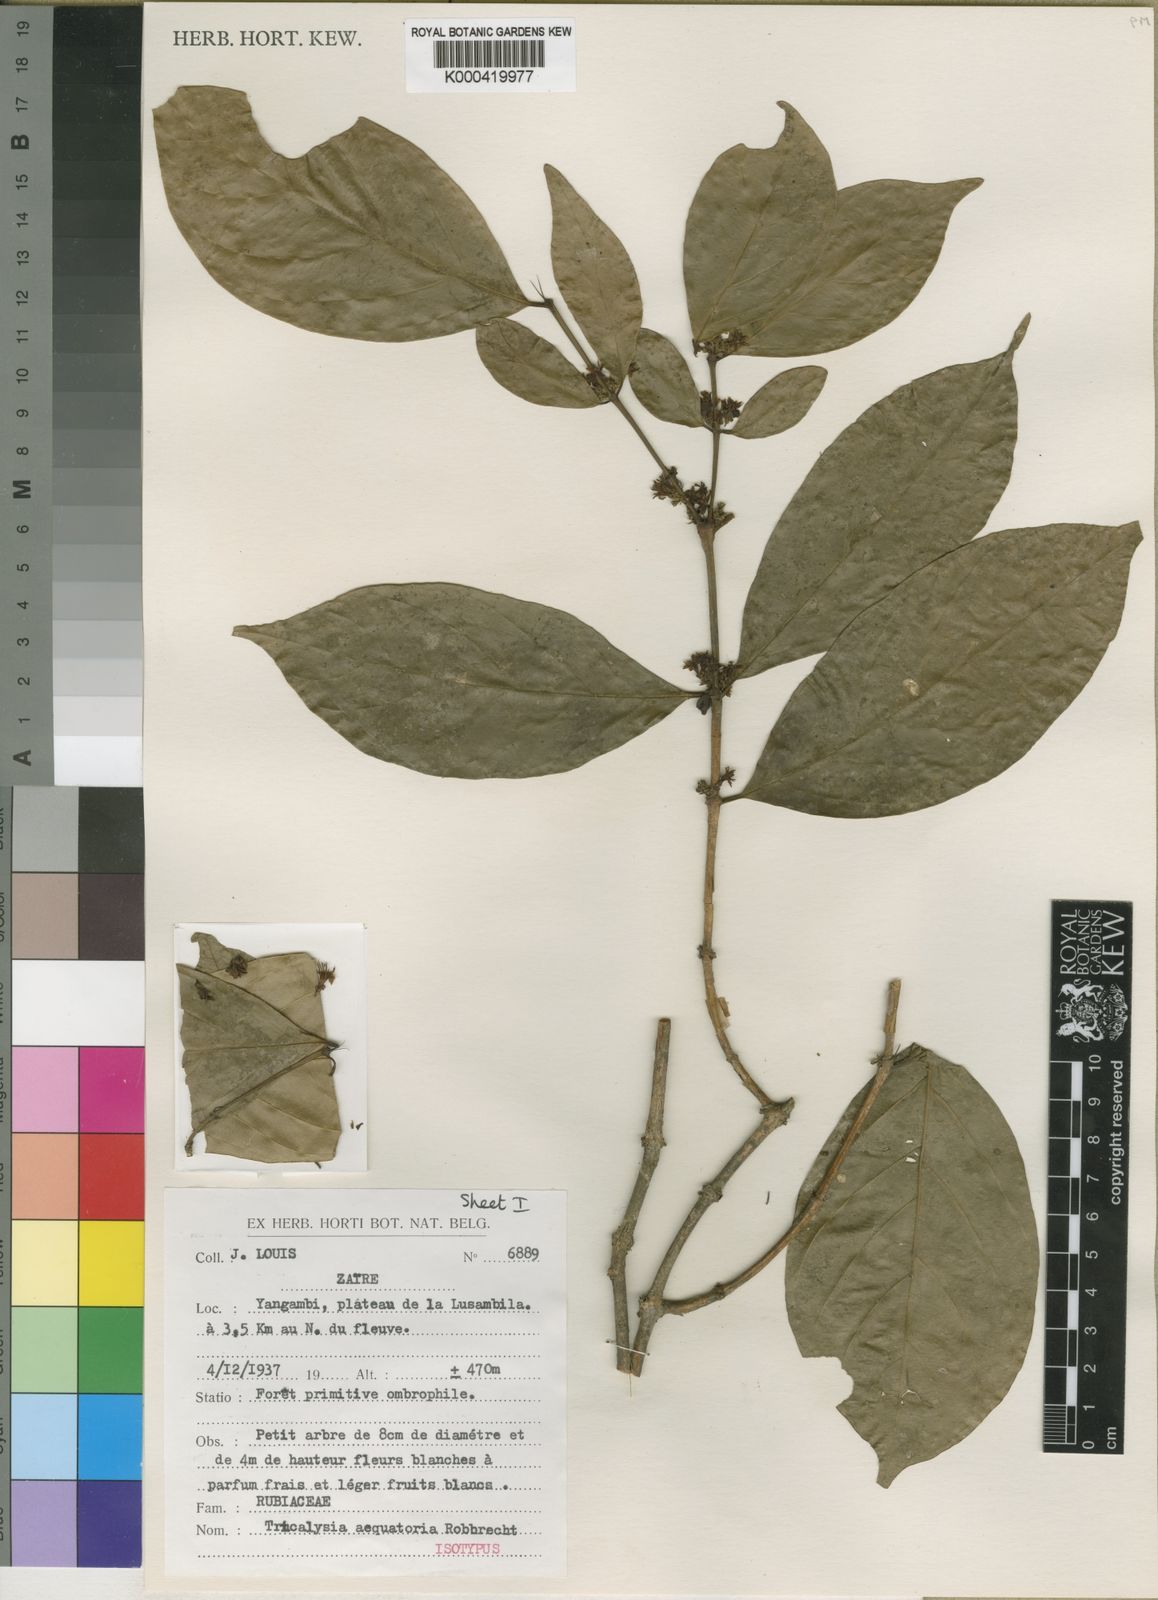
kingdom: Plantae
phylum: Tracheophyta
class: Magnoliopsida
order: Gentianales
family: Rubiaceae
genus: Empogona
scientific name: Empogona aequatoria
